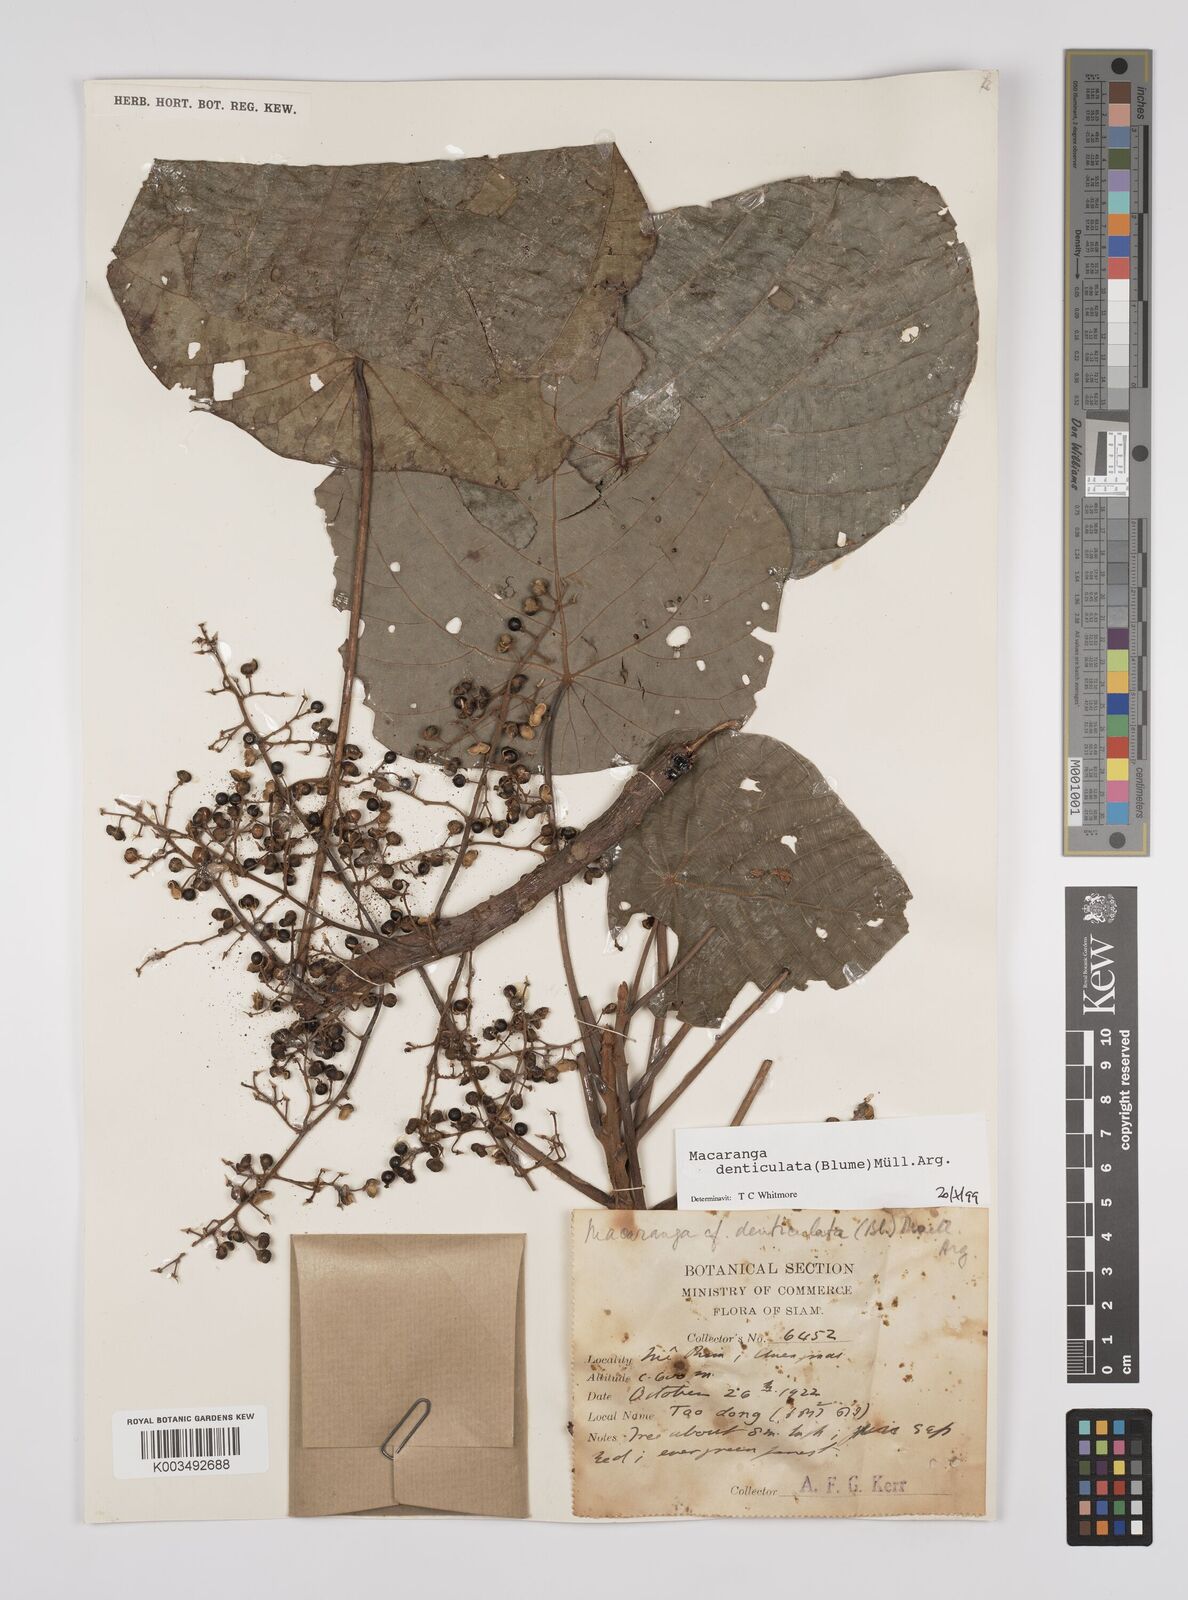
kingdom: Plantae
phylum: Tracheophyta
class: Magnoliopsida
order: Malpighiales
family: Euphorbiaceae
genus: Macaranga
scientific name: Macaranga denticulata
